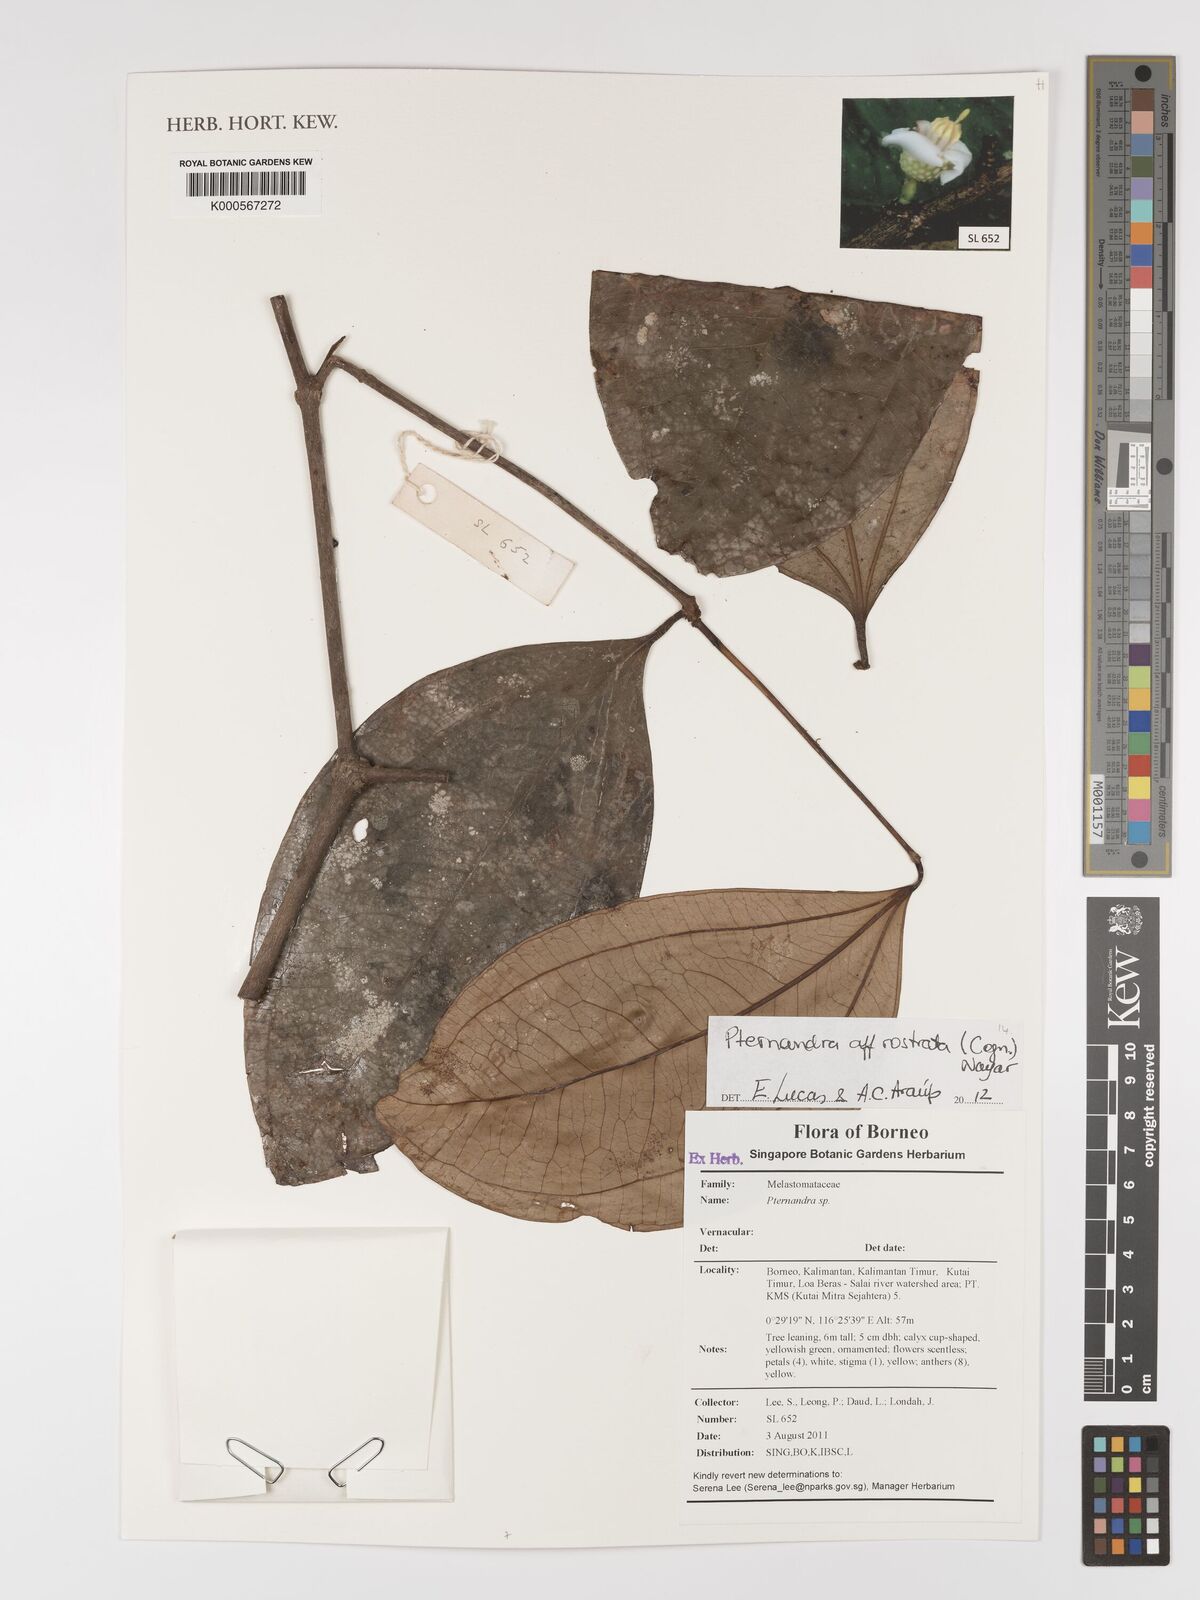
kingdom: Plantae
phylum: Tracheophyta
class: Magnoliopsida
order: Myrtales
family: Melastomataceae
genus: Pternandra
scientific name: Pternandra rostrata
